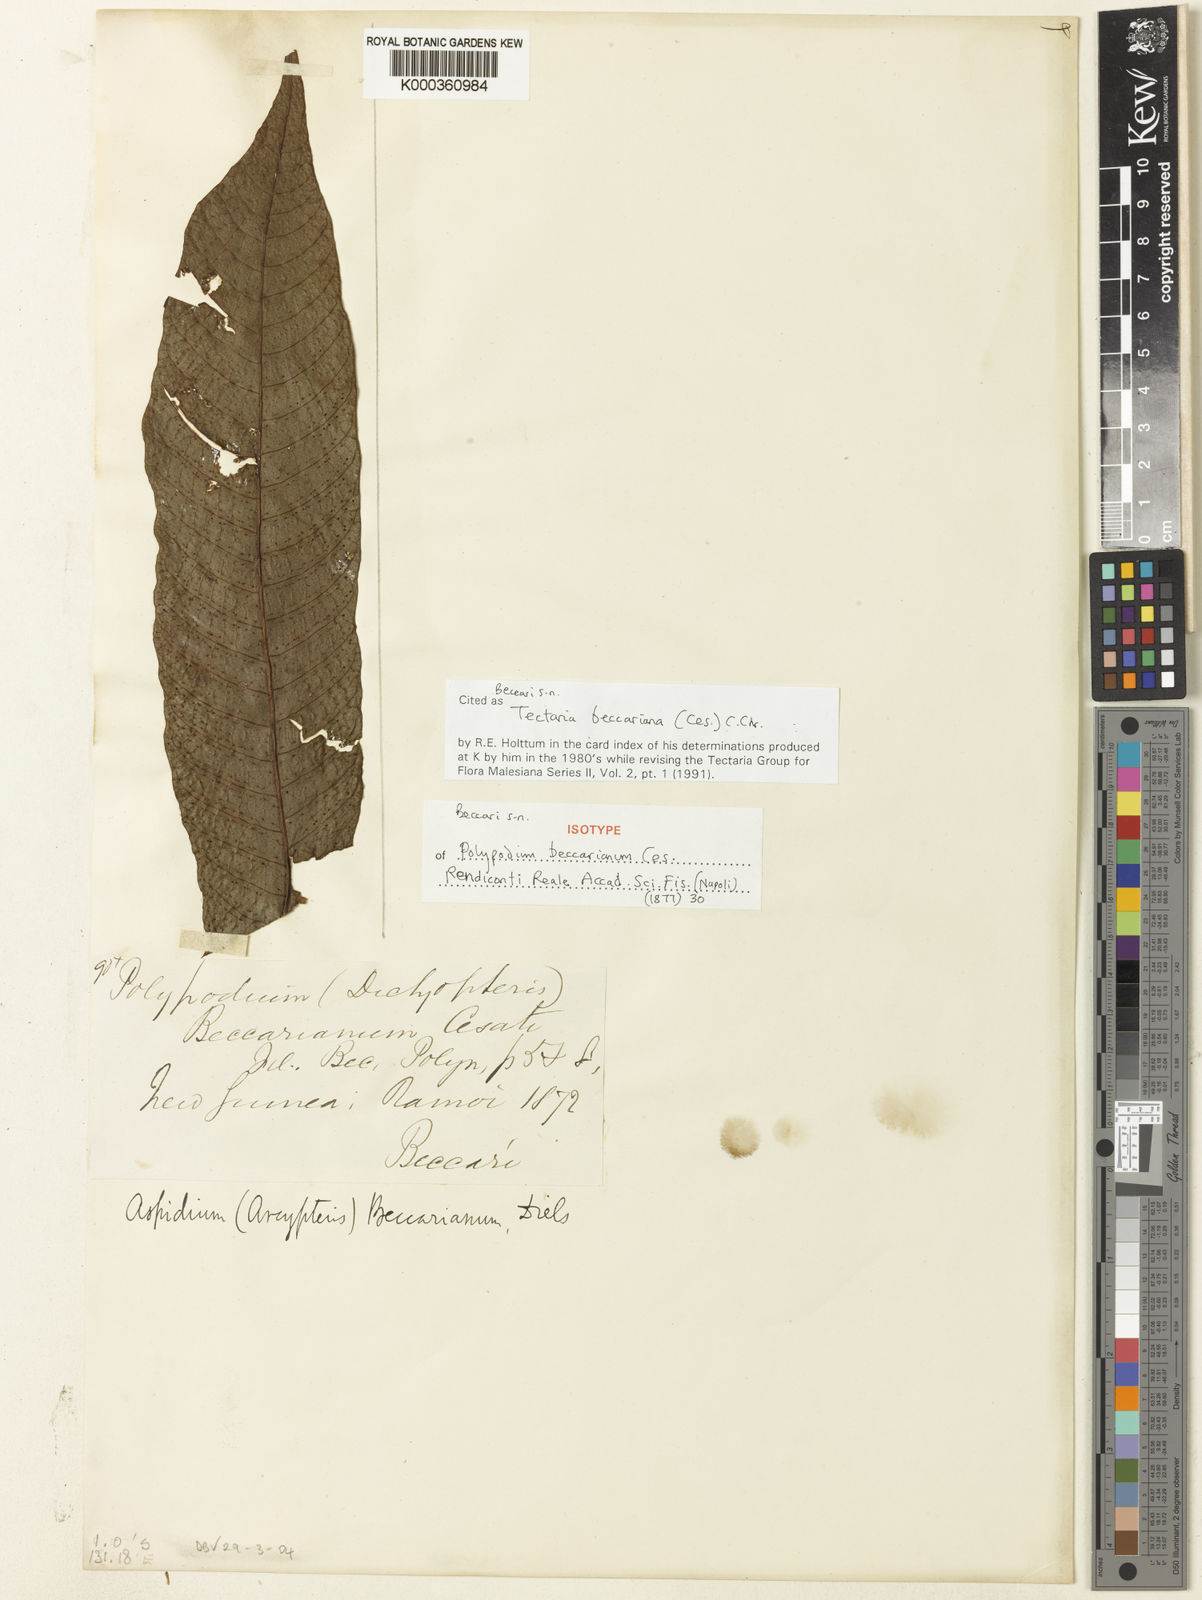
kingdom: Plantae
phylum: Tracheophyta
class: Polypodiopsida
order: Polypodiales
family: Tectariaceae
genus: Tectaria
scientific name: Tectaria beccariana
